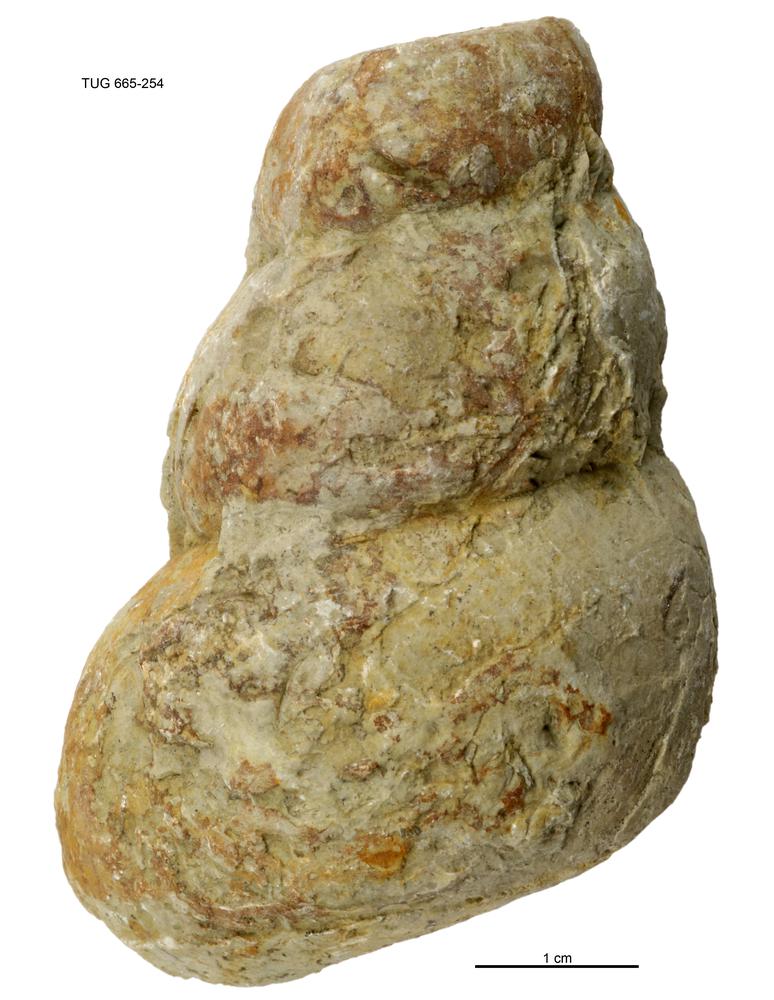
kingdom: Animalia
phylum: Mollusca
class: Gastropoda
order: Pleurotomariida
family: Murchisoniidae
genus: Murchisonia
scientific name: Murchisonia insignis
